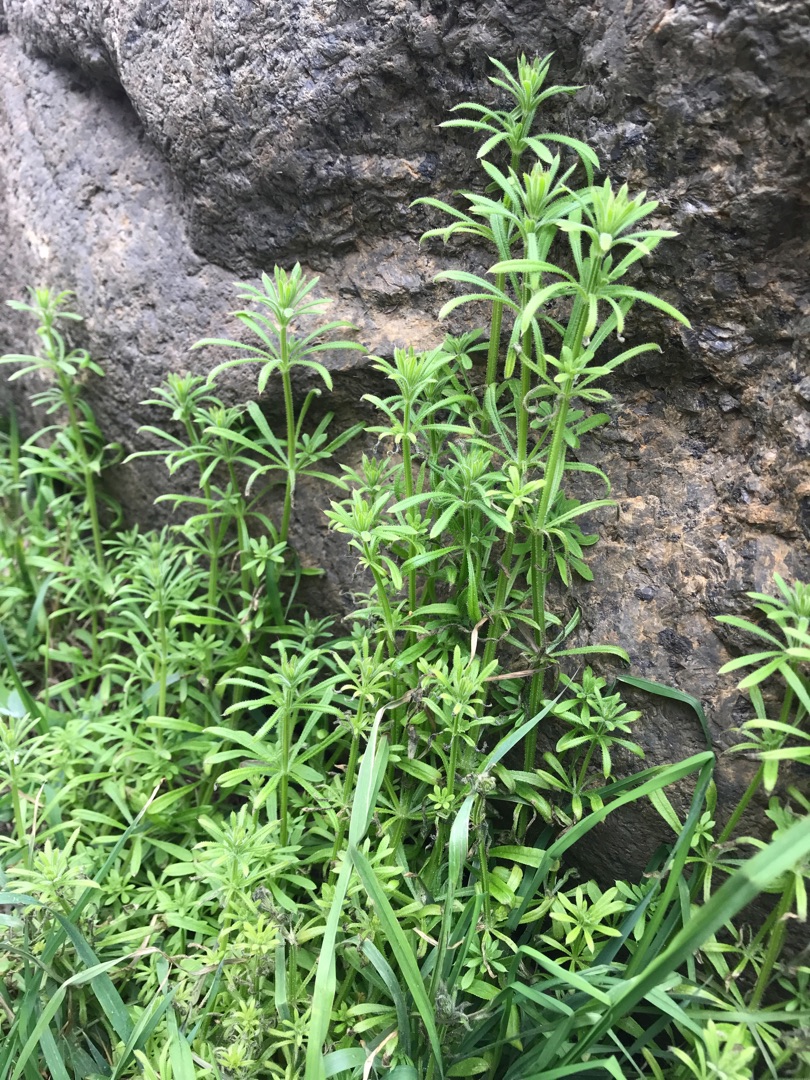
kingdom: Plantae
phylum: Tracheophyta
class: Magnoliopsida
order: Gentianales
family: Rubiaceae
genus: Galium
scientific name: Galium aparine
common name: Burre-snerre
